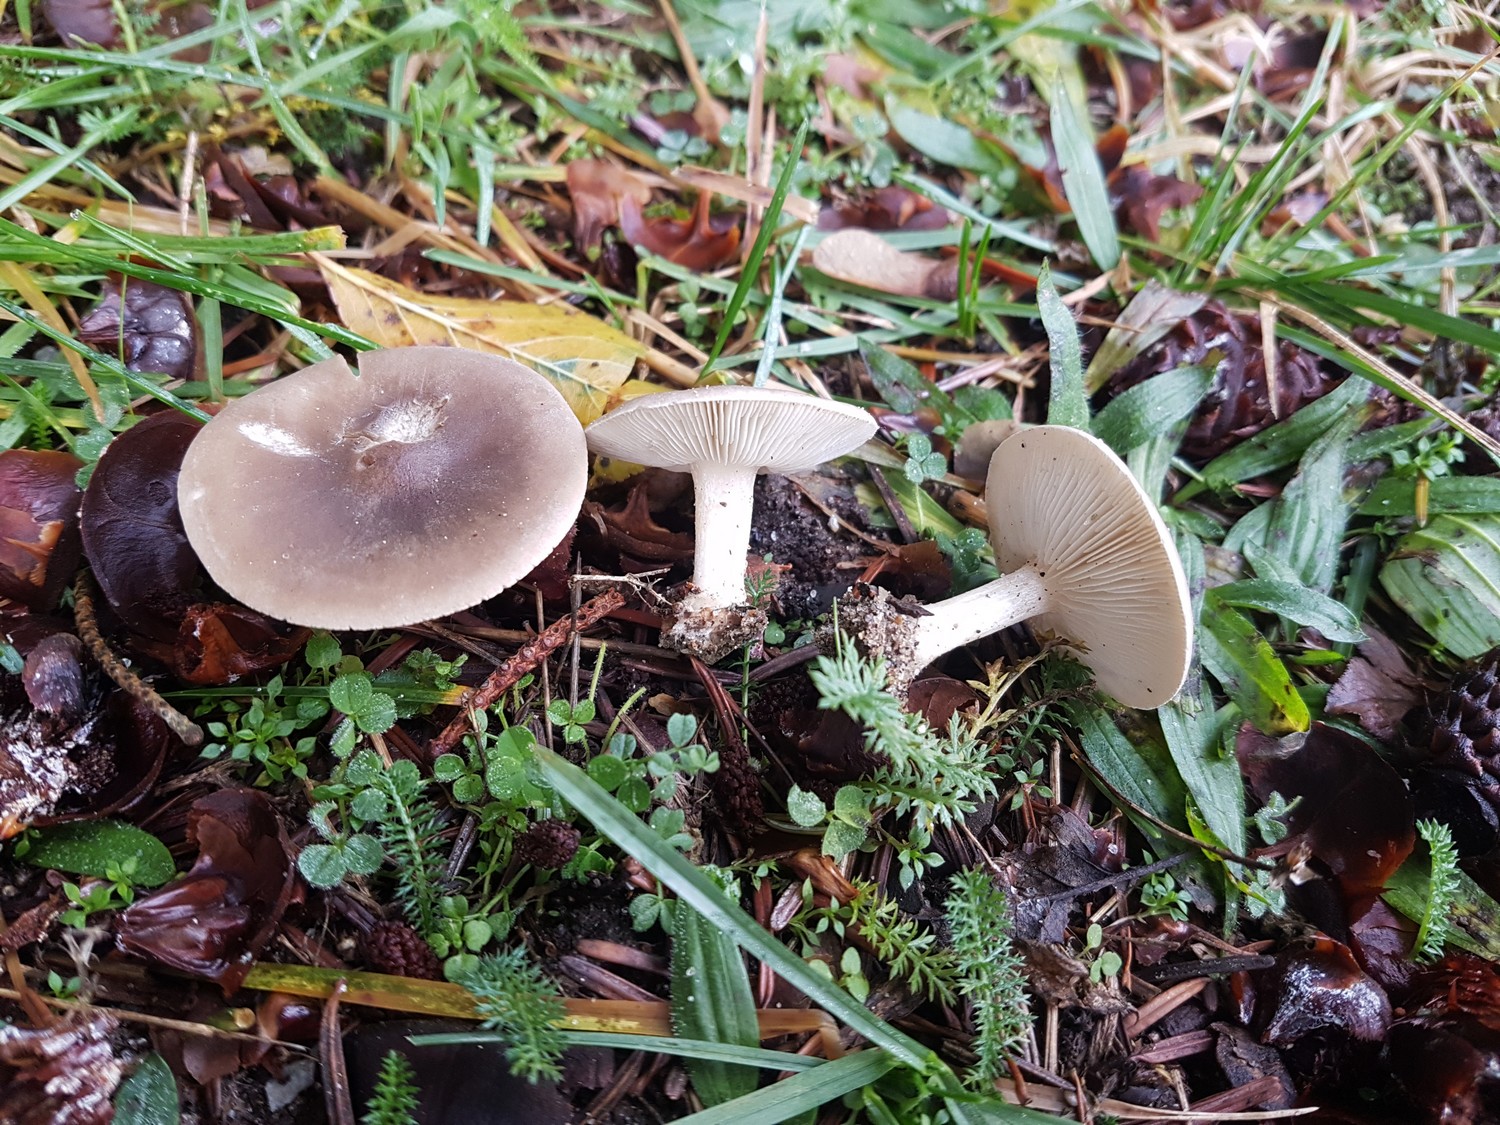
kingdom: Fungi
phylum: Basidiomycota
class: Agaricomycetes
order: Agaricales
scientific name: Agaricales
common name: champignonordenen
